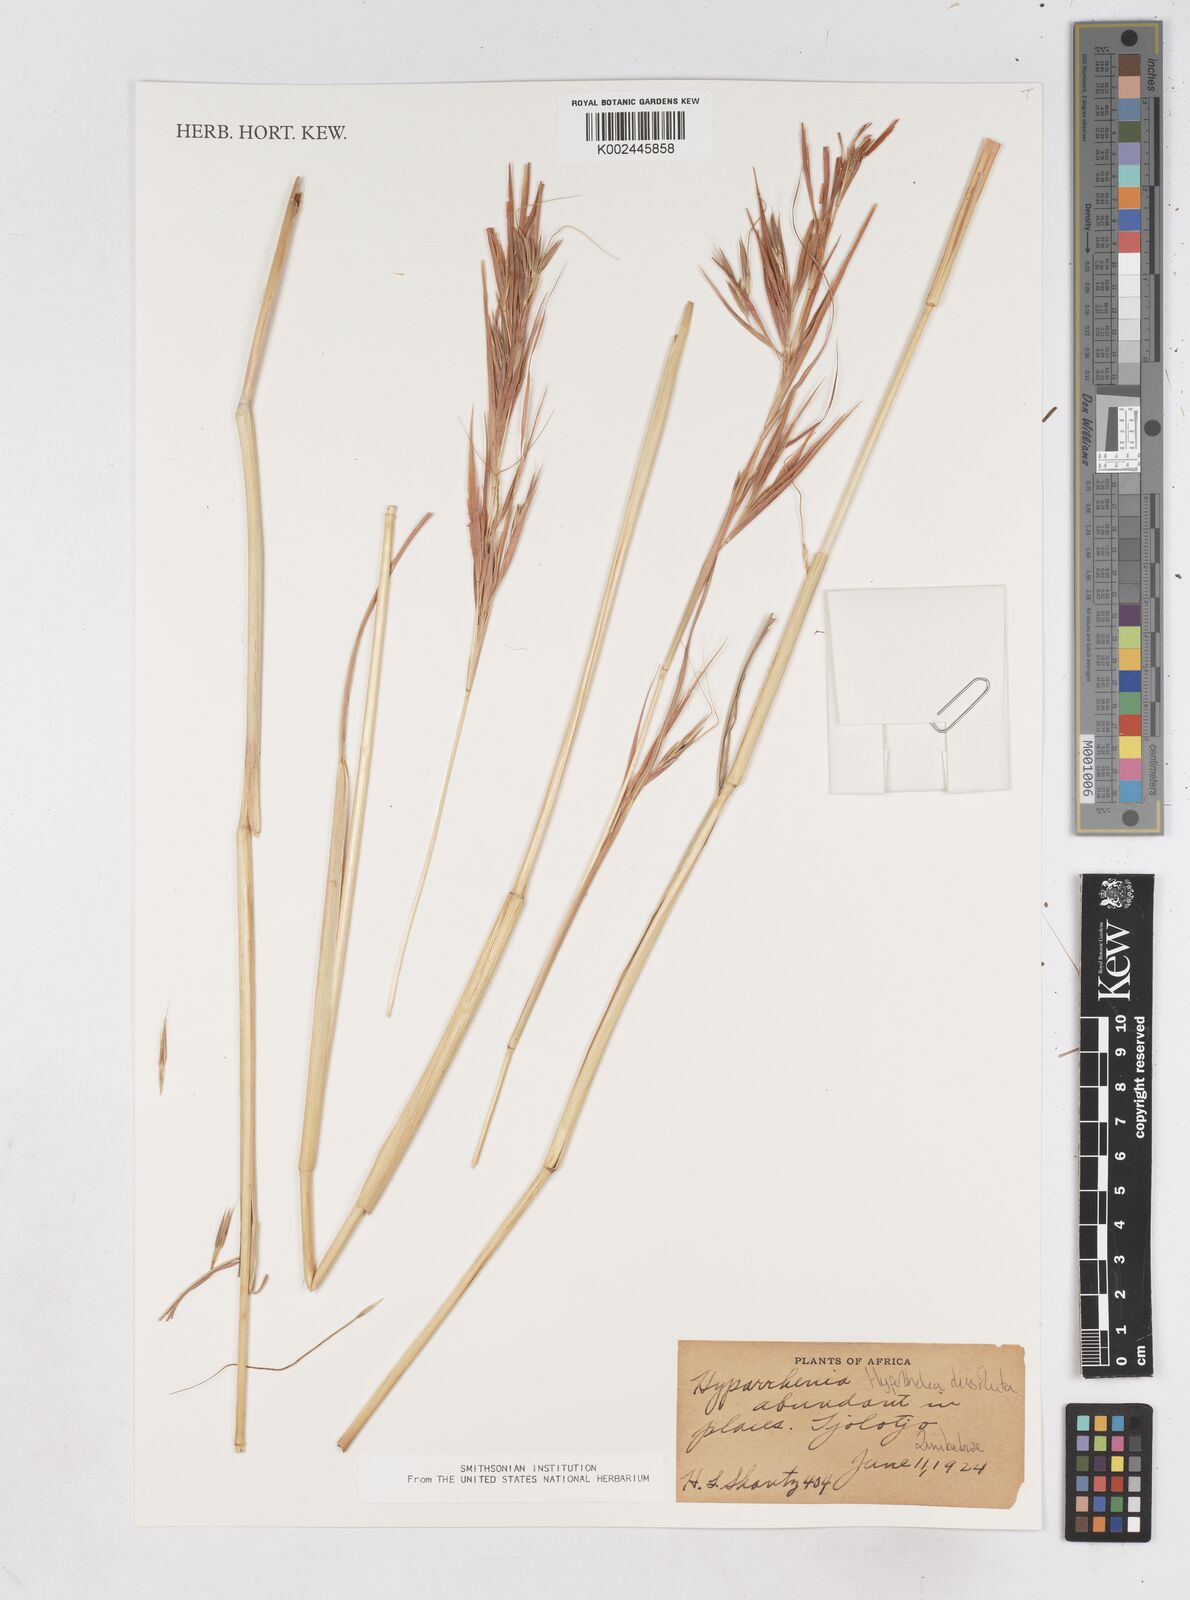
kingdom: Plantae
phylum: Tracheophyta
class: Liliopsida
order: Poales
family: Poaceae
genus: Hyperthelia
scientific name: Hyperthelia dissoluta
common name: Yellow thatching grass
